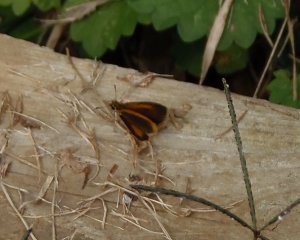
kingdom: Animalia
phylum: Arthropoda
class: Insecta
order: Lepidoptera
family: Hesperiidae
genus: Ancyloxypha
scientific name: Ancyloxypha numitor
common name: Least Skipper
